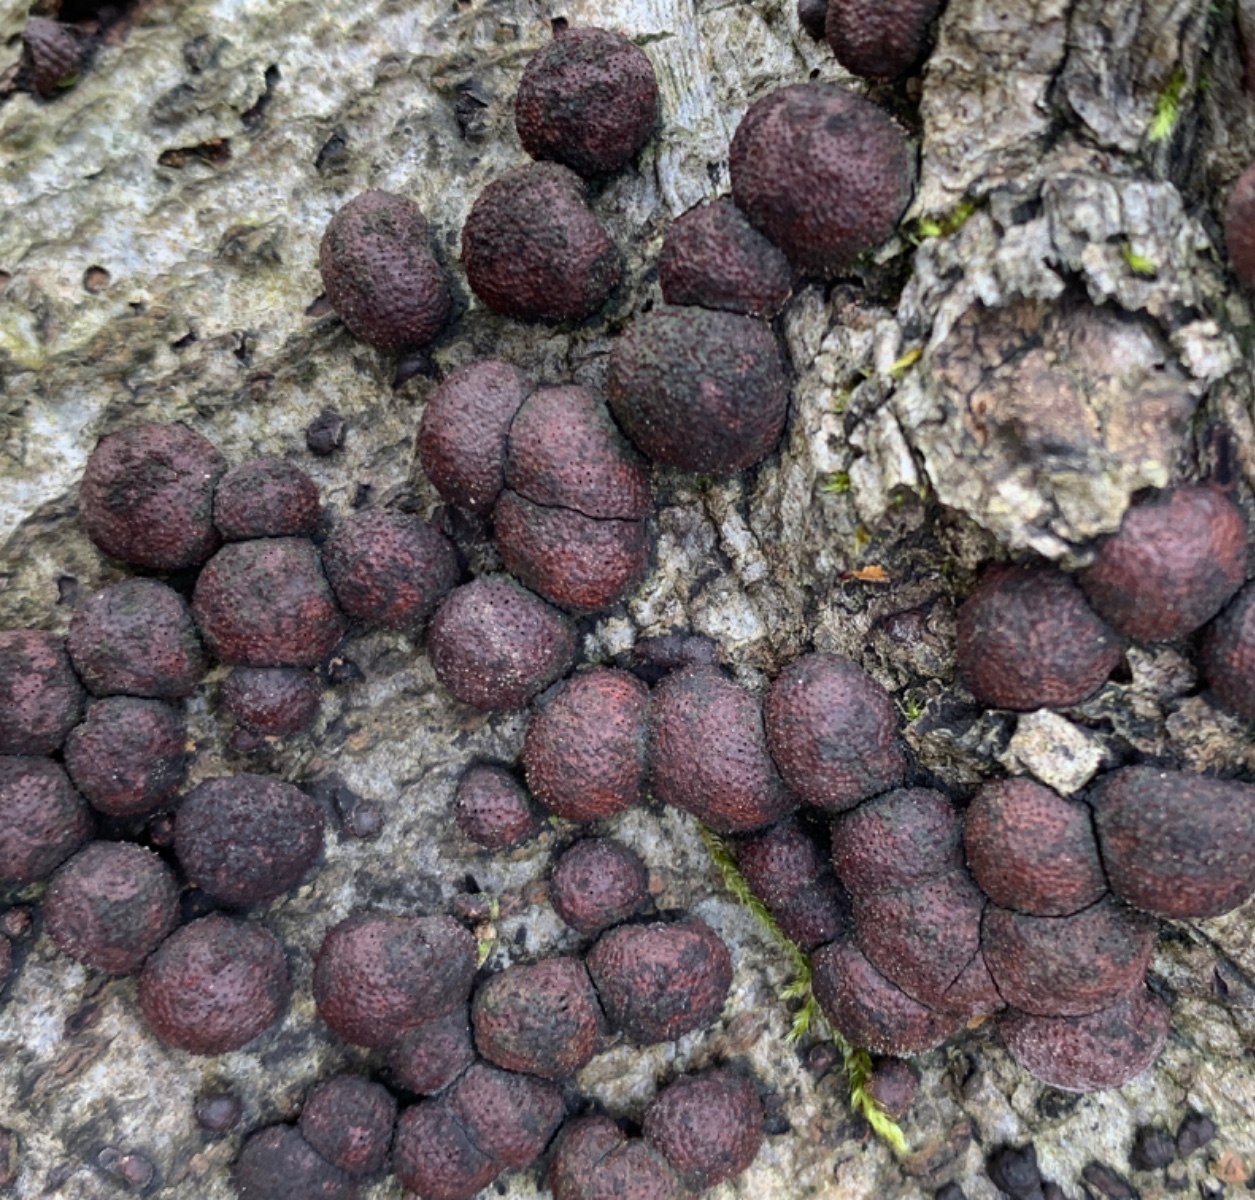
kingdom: Fungi
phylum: Ascomycota
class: Sordariomycetes
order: Xylariales
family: Hypoxylaceae
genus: Hypoxylon
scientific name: Hypoxylon fragiforme
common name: kuljordbær
